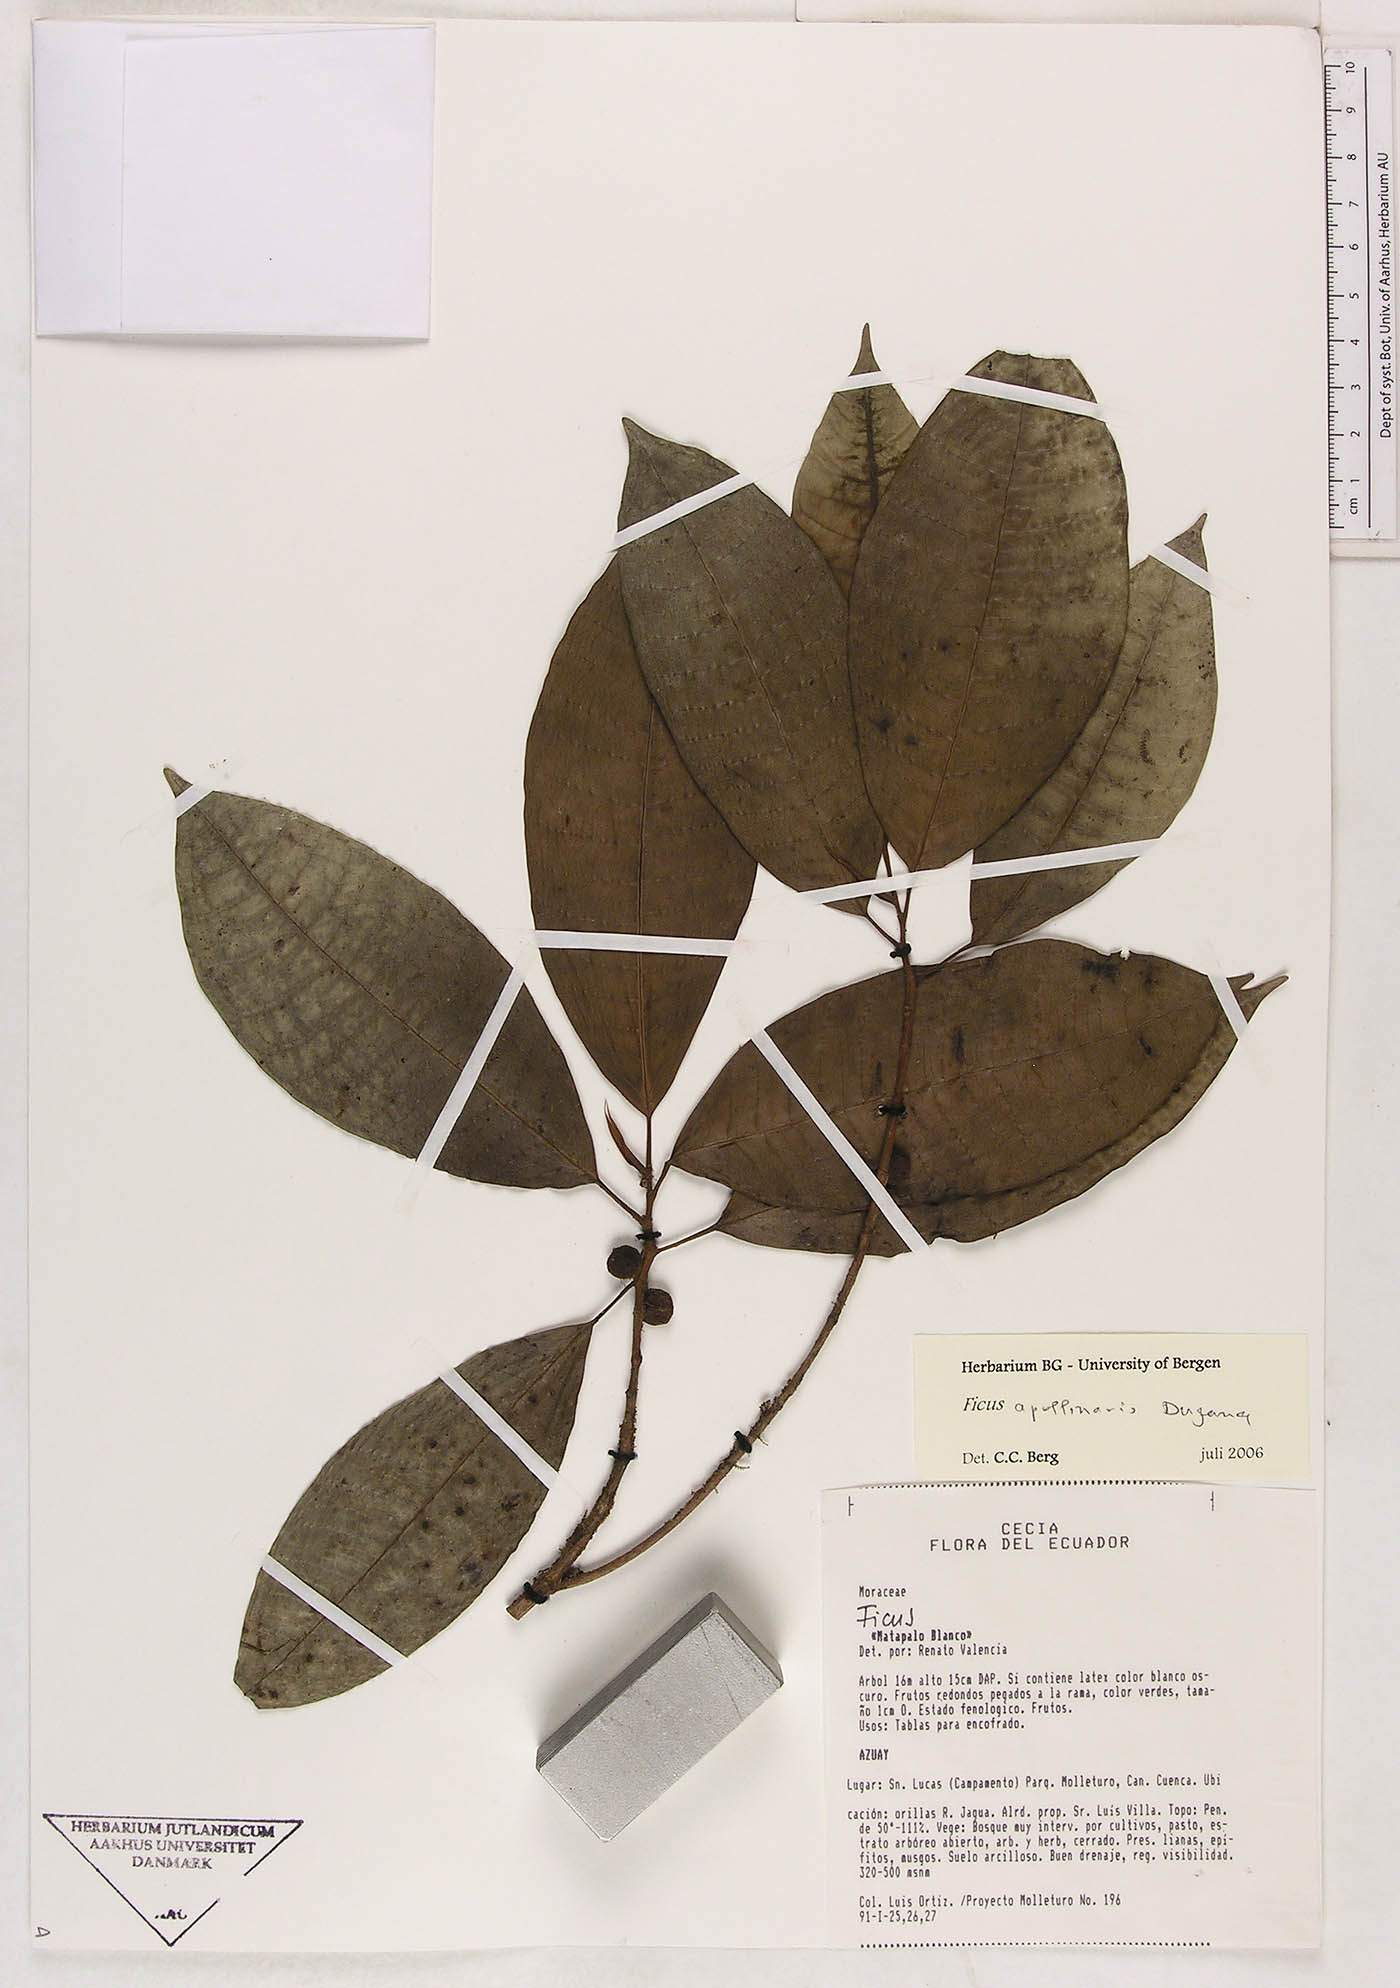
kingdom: Plantae
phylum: Tracheophyta
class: Magnoliopsida
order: Rosales
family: Moraceae
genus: Ficus
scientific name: Ficus mutisii
